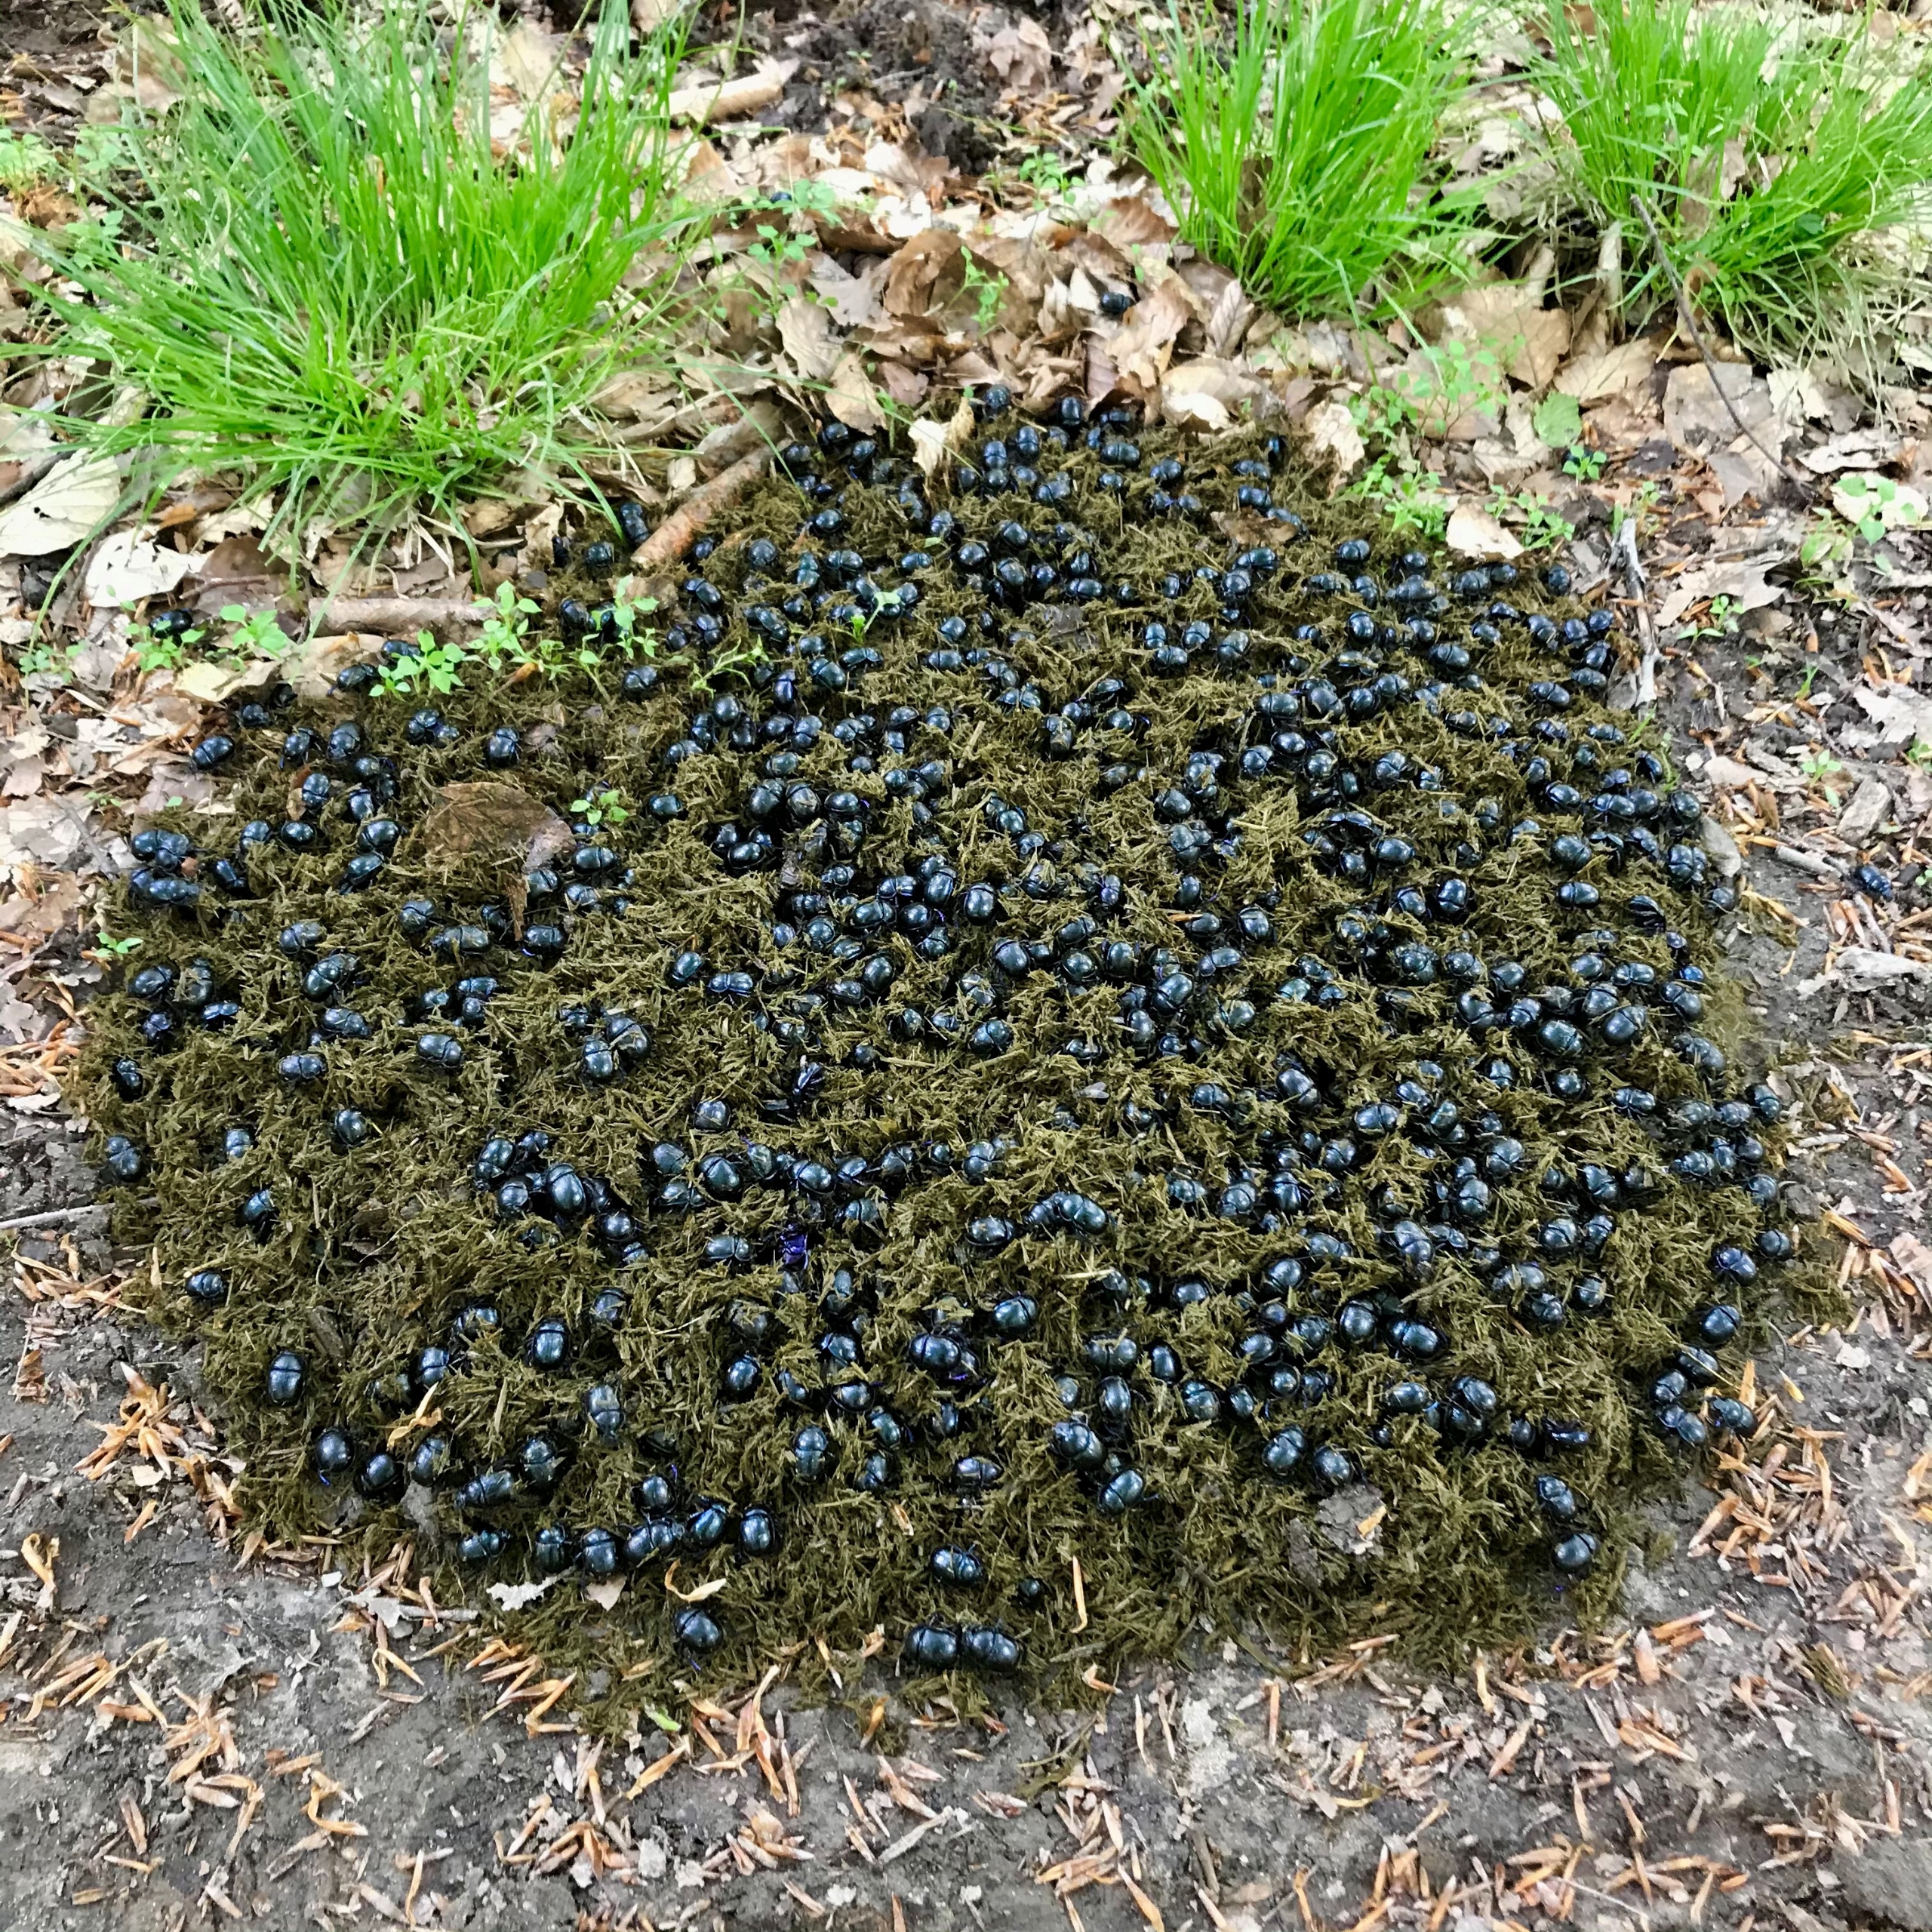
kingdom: Animalia
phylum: Arthropoda
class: Insecta
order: Coleoptera
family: Geotrupidae
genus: Anoplotrupes
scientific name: Anoplotrupes stercorosus
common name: Skovskarnbasse
